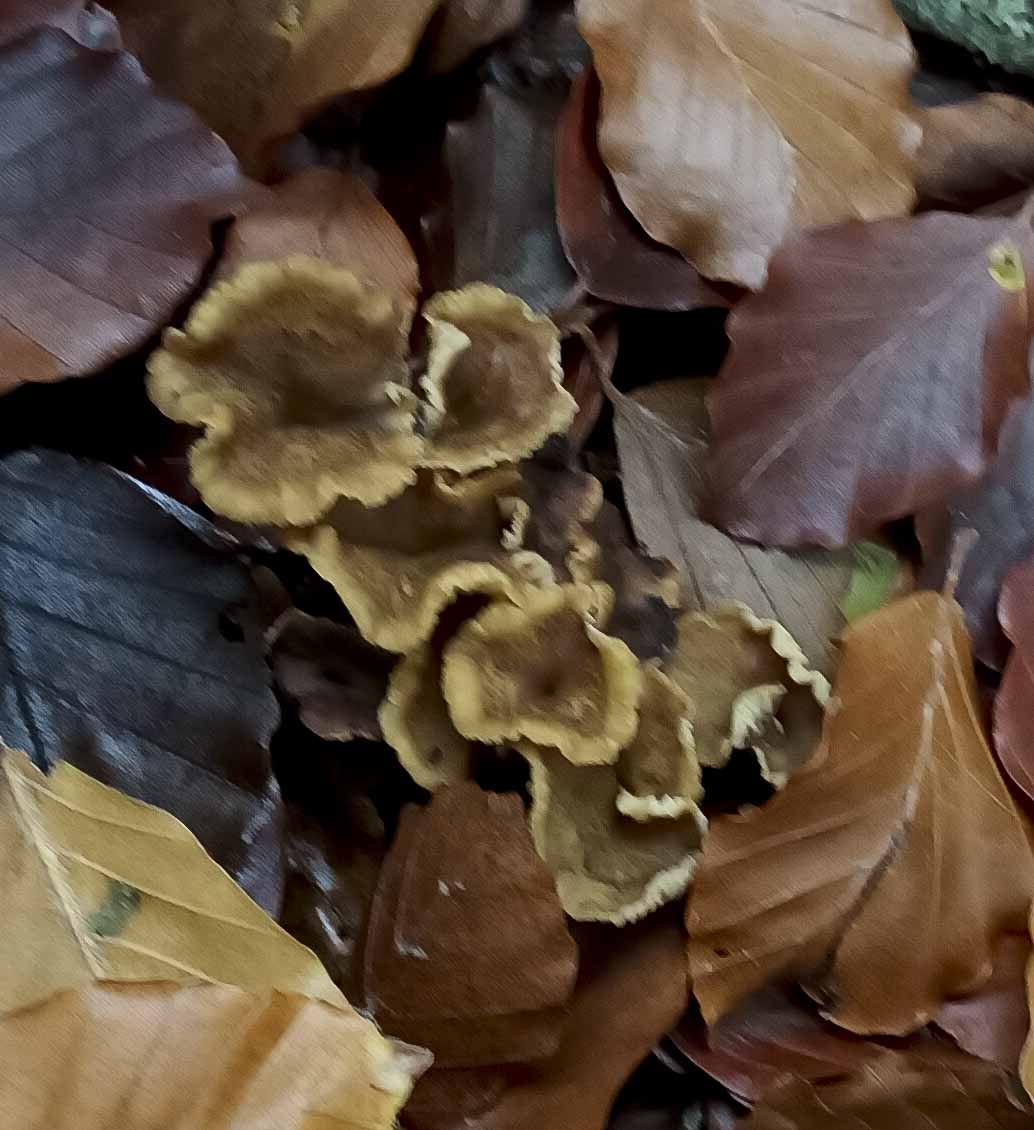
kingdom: Fungi
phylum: Basidiomycota
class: Agaricomycetes
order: Cantharellales
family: Hydnaceae
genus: Craterellus
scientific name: Craterellus tubaeformis
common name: tragt-kantarel
